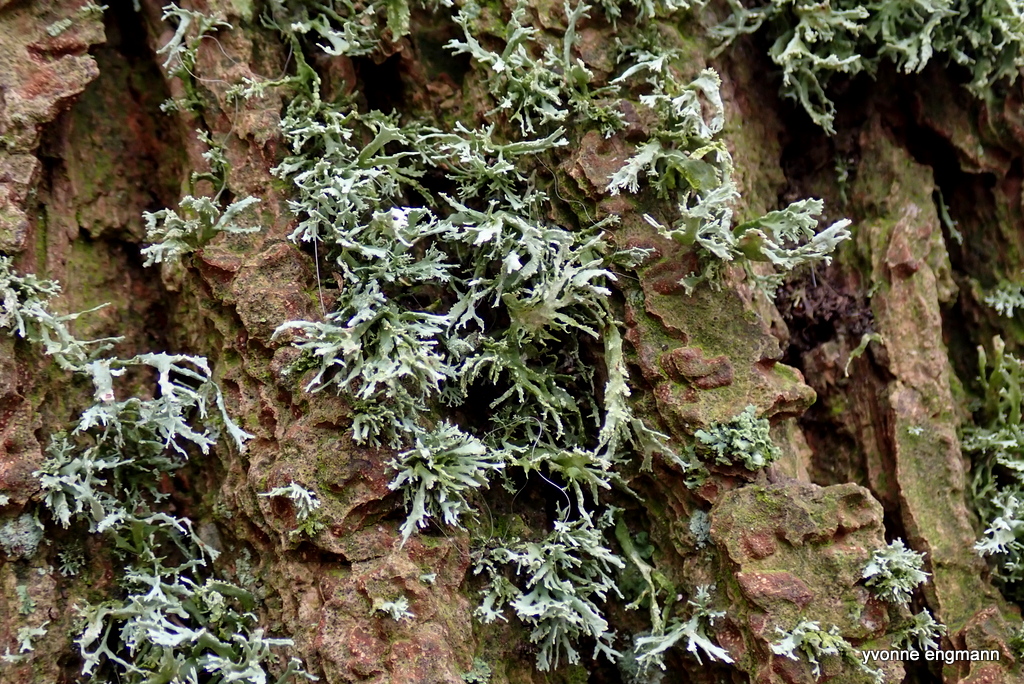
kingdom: Fungi
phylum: Ascomycota
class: Lecanoromycetes
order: Lecanorales
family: Parmeliaceae
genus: Evernia
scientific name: Evernia prunastri
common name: almindelig slåenlav
